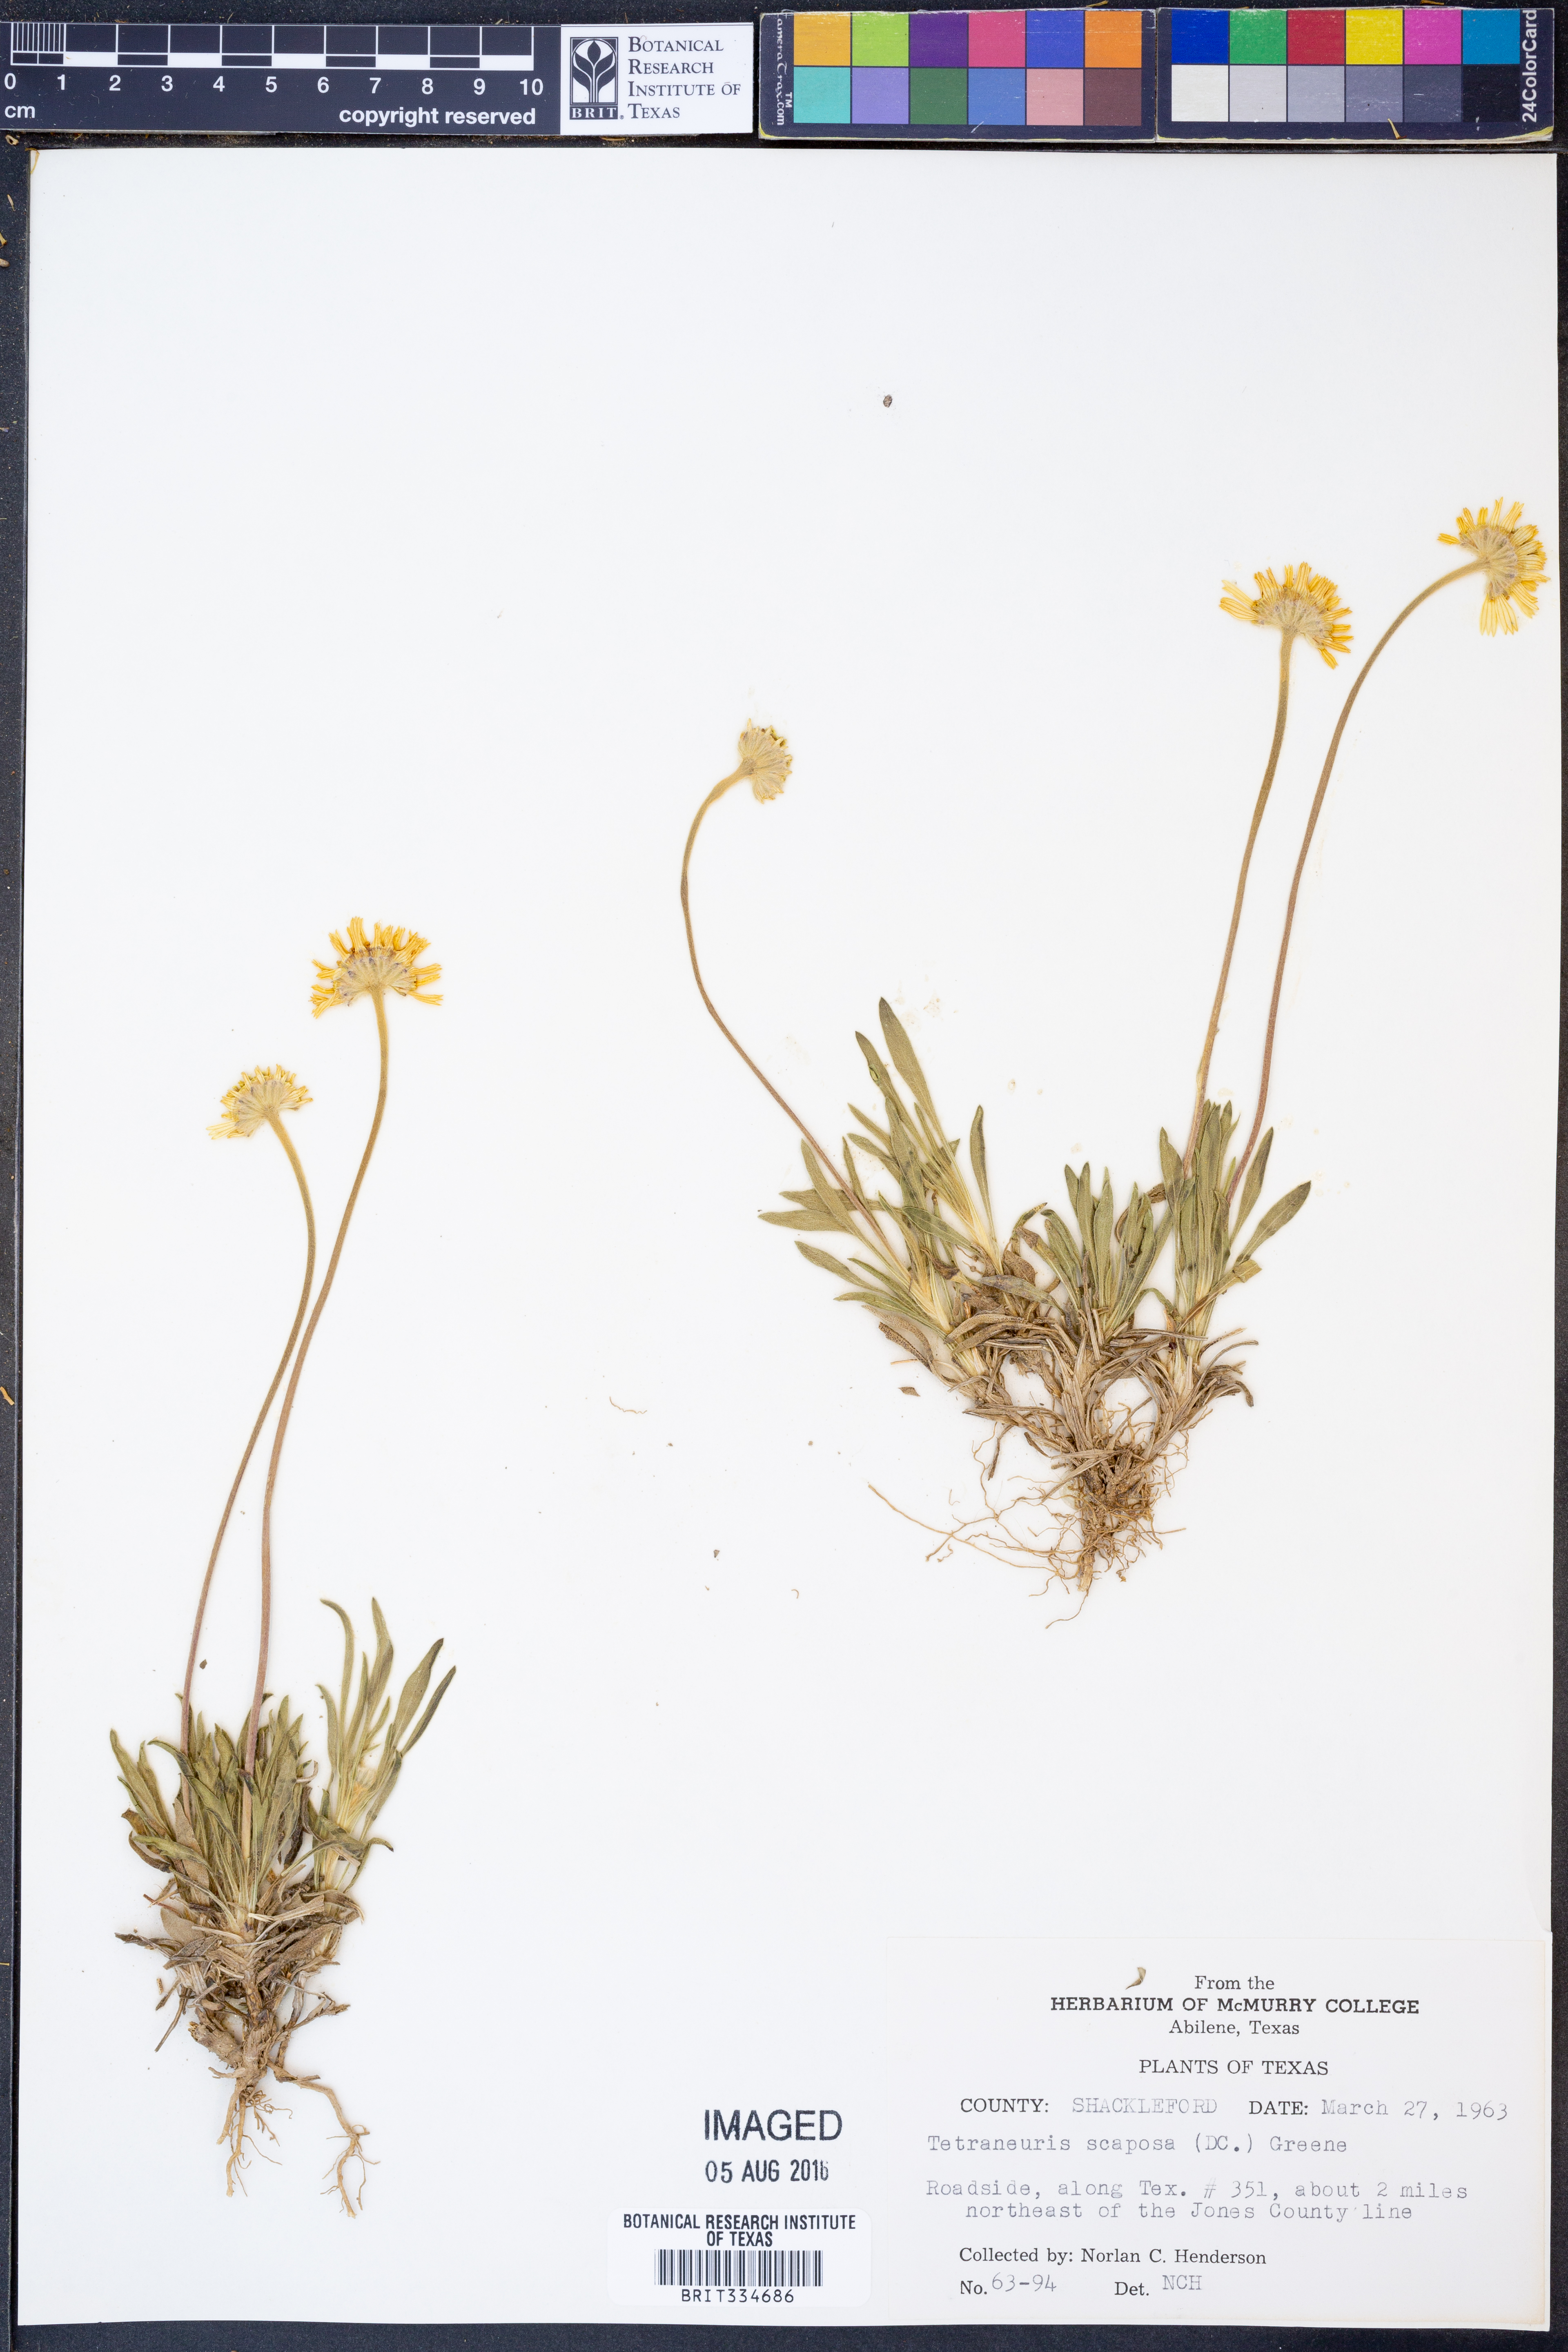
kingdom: Plantae
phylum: Tracheophyta
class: Magnoliopsida
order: Asterales
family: Asteraceae
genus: Tetraneuris
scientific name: Tetraneuris scaposa
